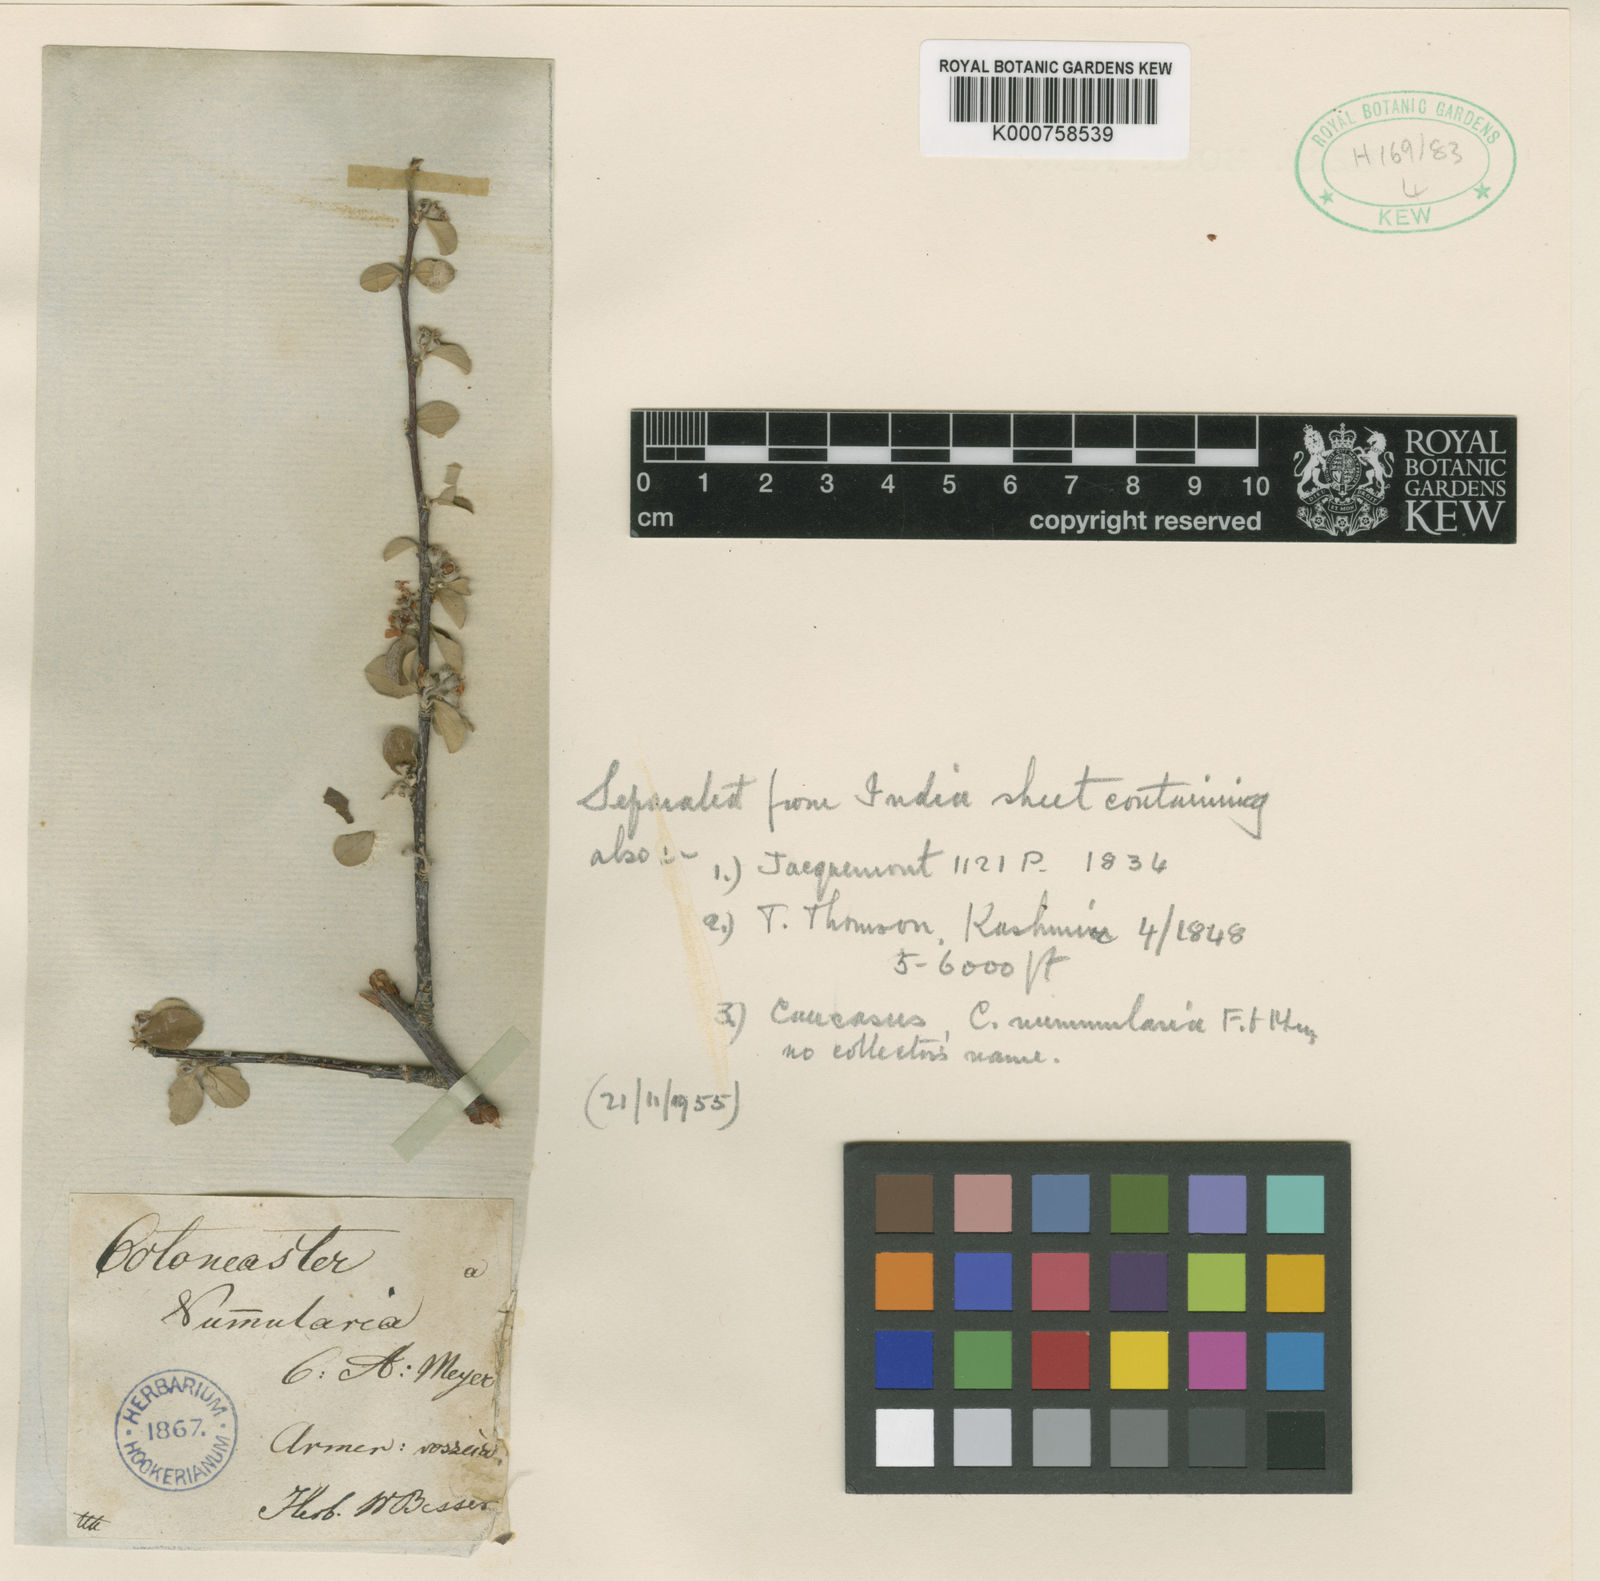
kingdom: Plantae
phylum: Tracheophyta
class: Magnoliopsida
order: Rosales
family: Rosaceae
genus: Cotoneaster
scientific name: Cotoneaster
